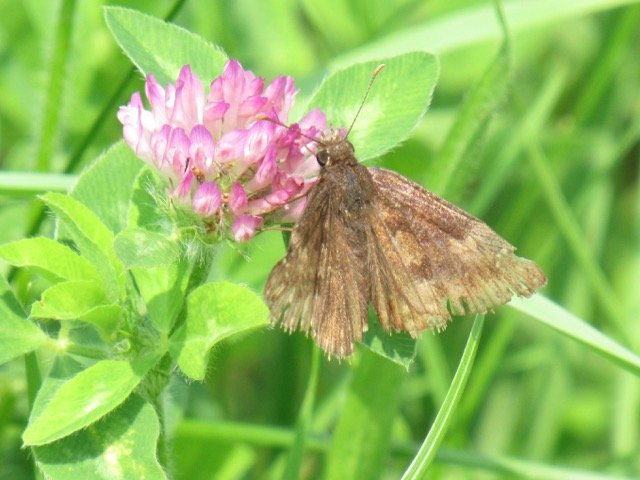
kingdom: Animalia
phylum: Arthropoda
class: Insecta
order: Lepidoptera
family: Hesperiidae
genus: Gesta
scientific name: Gesta
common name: Wild Indigo Duskywing
